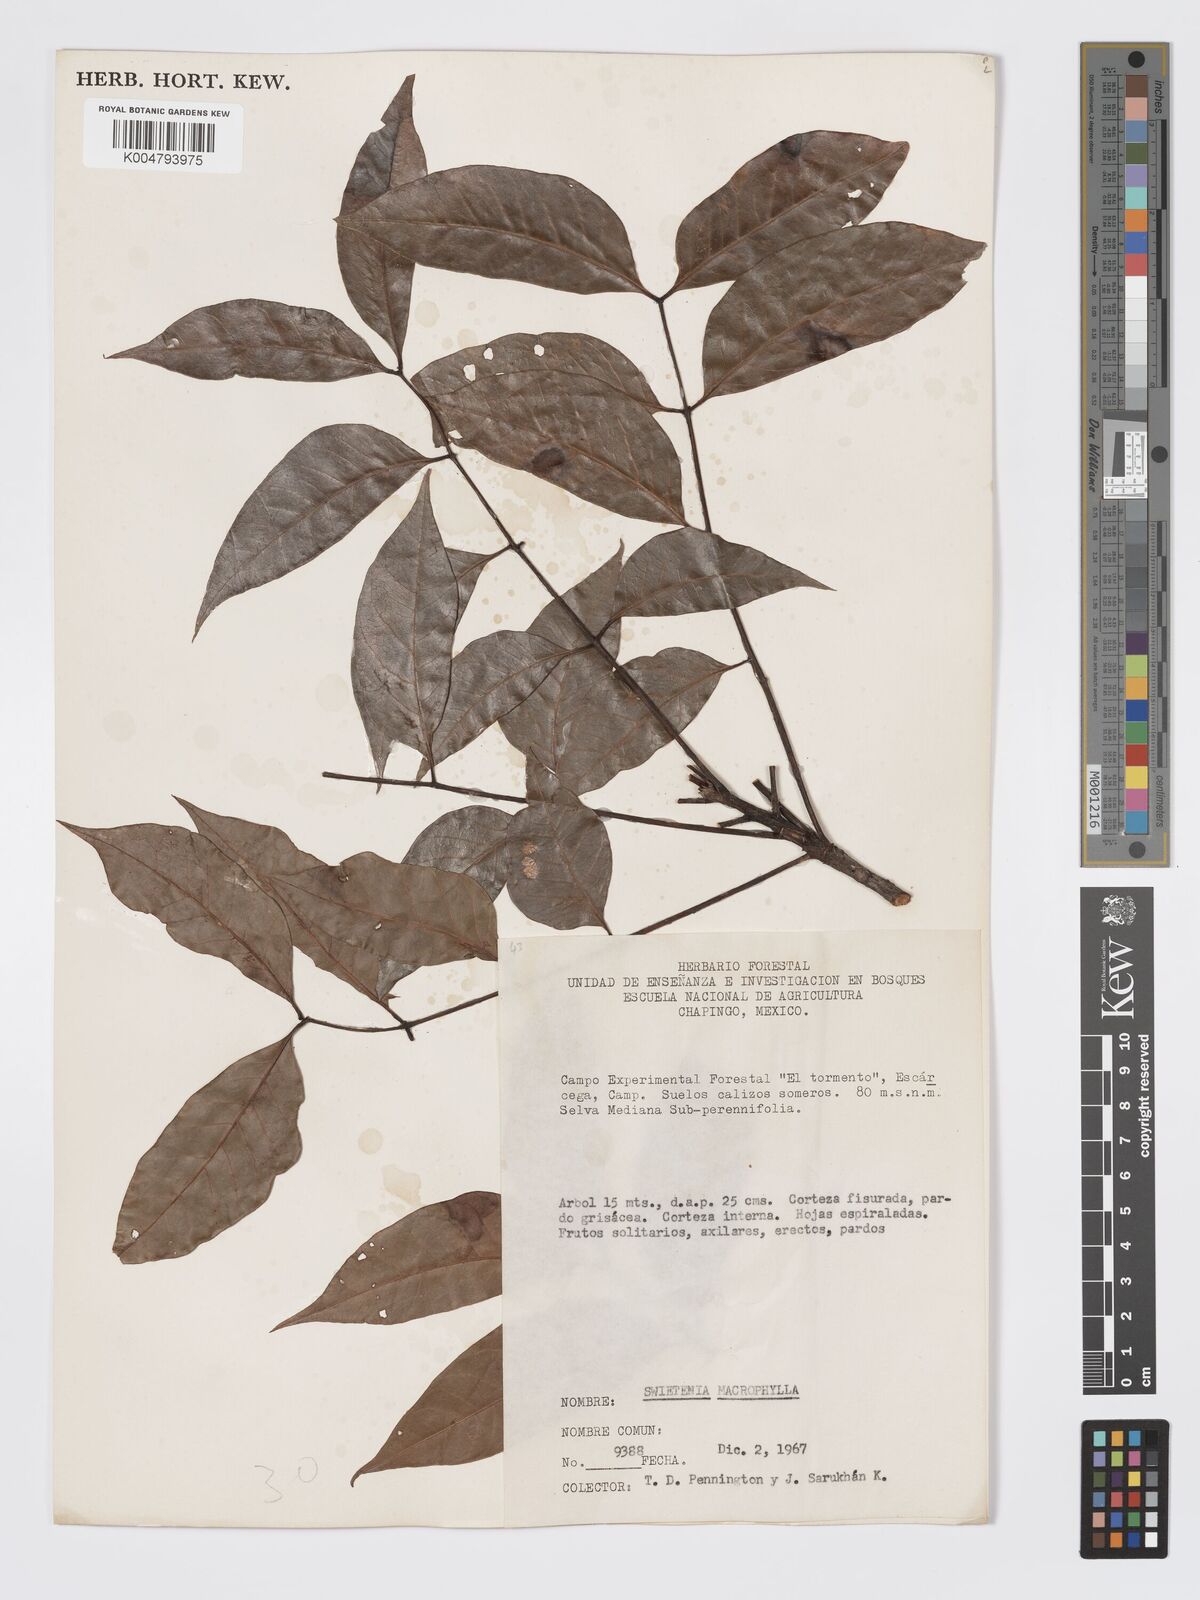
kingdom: Plantae
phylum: Tracheophyta
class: Magnoliopsida
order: Sapindales
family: Meliaceae
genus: Swietenia
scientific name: Swietenia macrophylla
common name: Honduras mahogany
